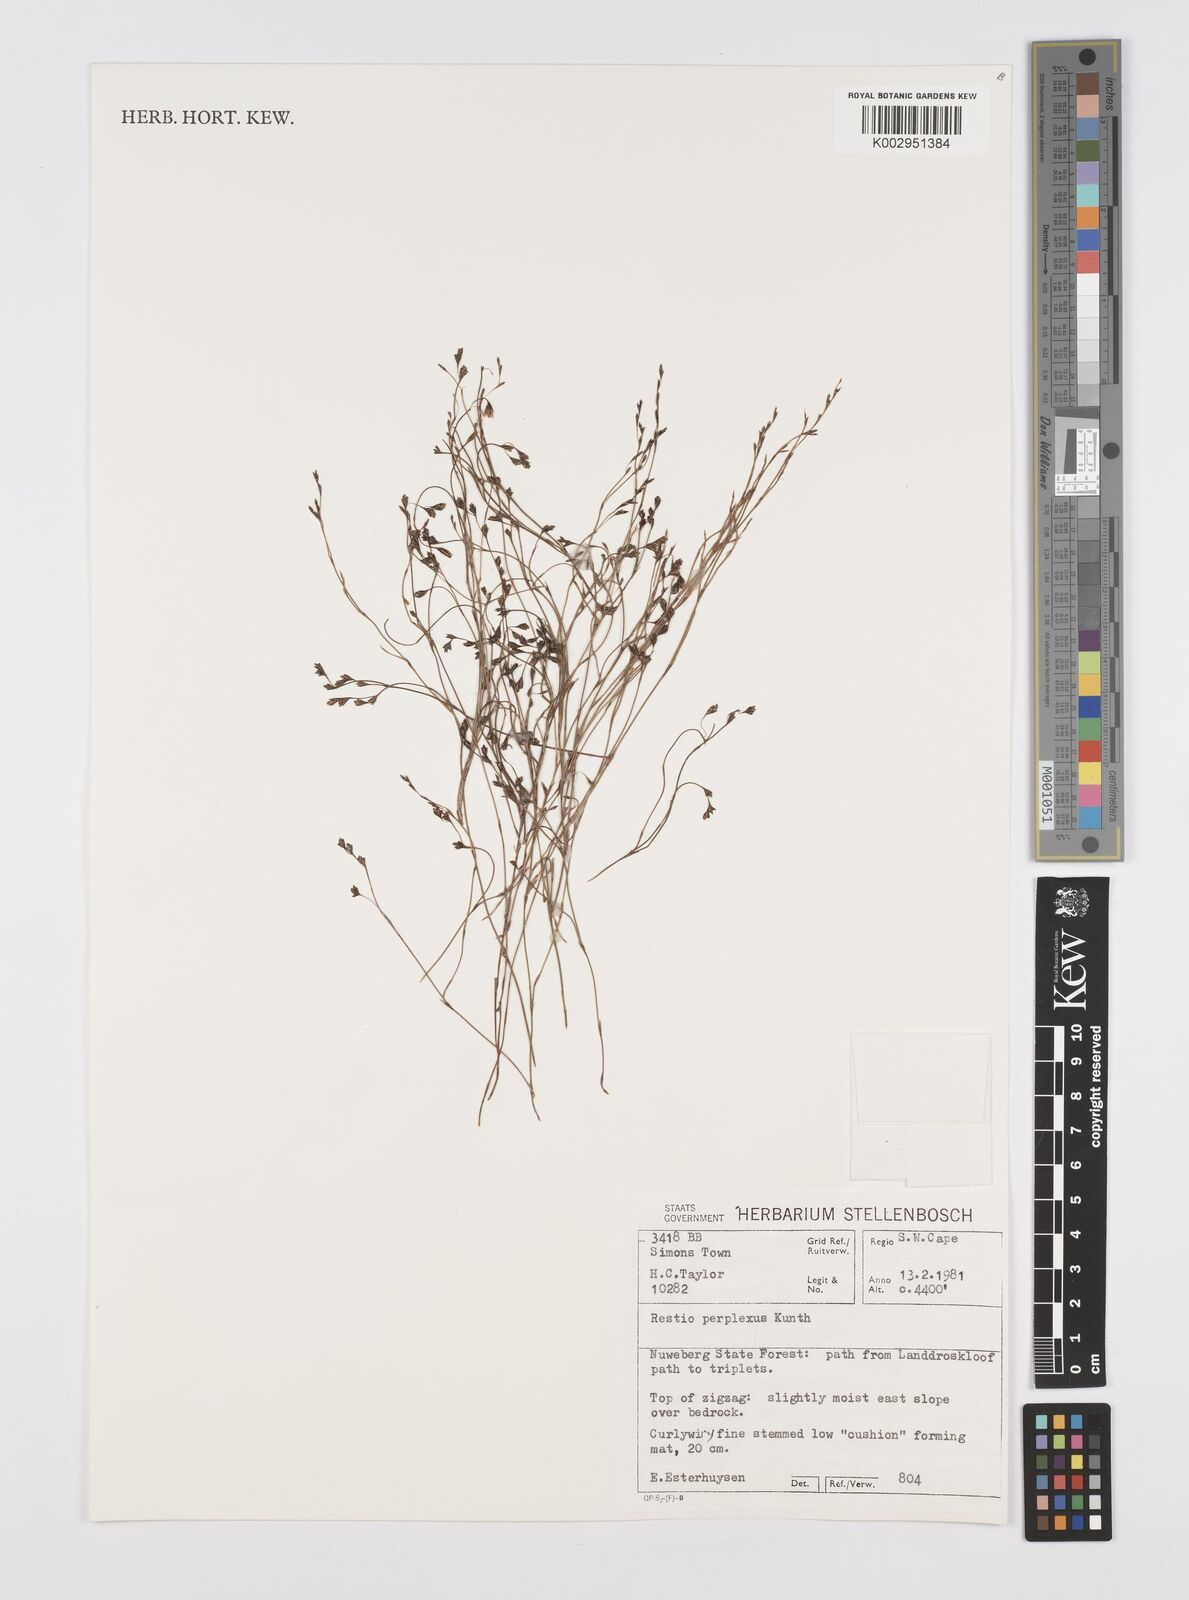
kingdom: Plantae
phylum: Tracheophyta
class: Liliopsida
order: Poales
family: Restionaceae
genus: Restio
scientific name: Restio perplexus
